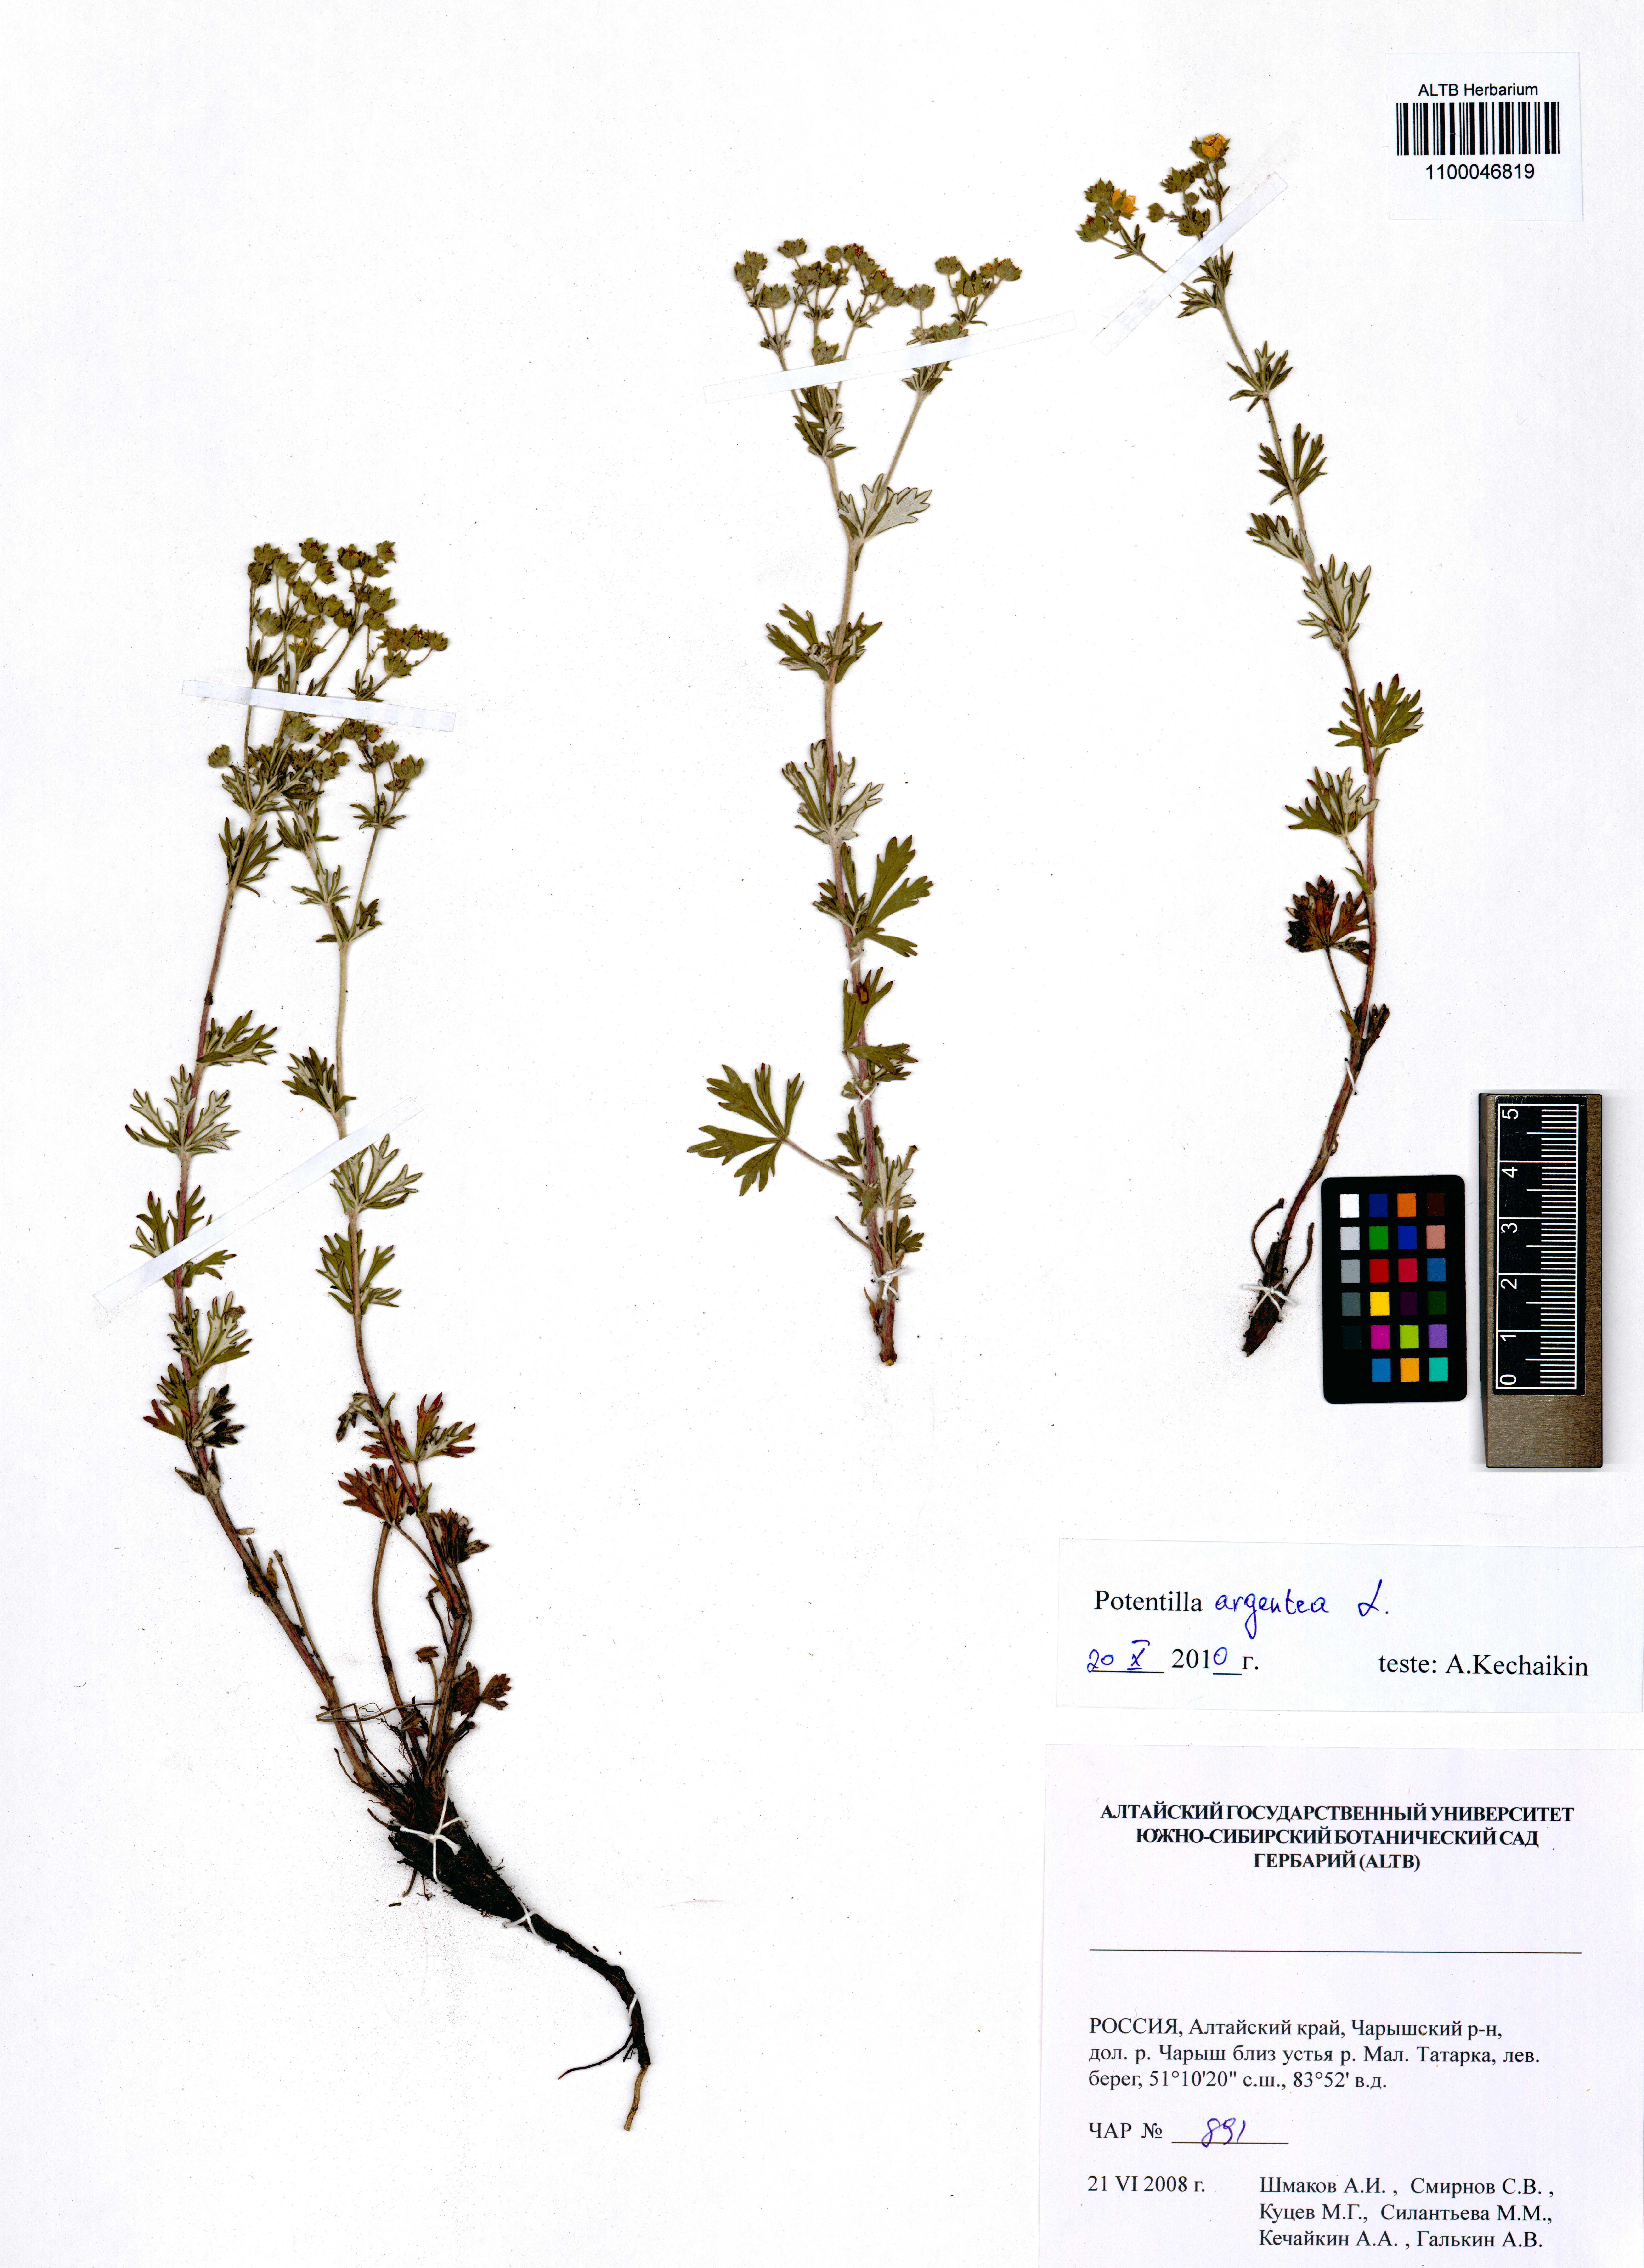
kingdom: Plantae
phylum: Tracheophyta
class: Magnoliopsida
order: Rosales
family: Rosaceae
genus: Potentilla
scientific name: Potentilla argentea
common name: Hoary cinquefoil
